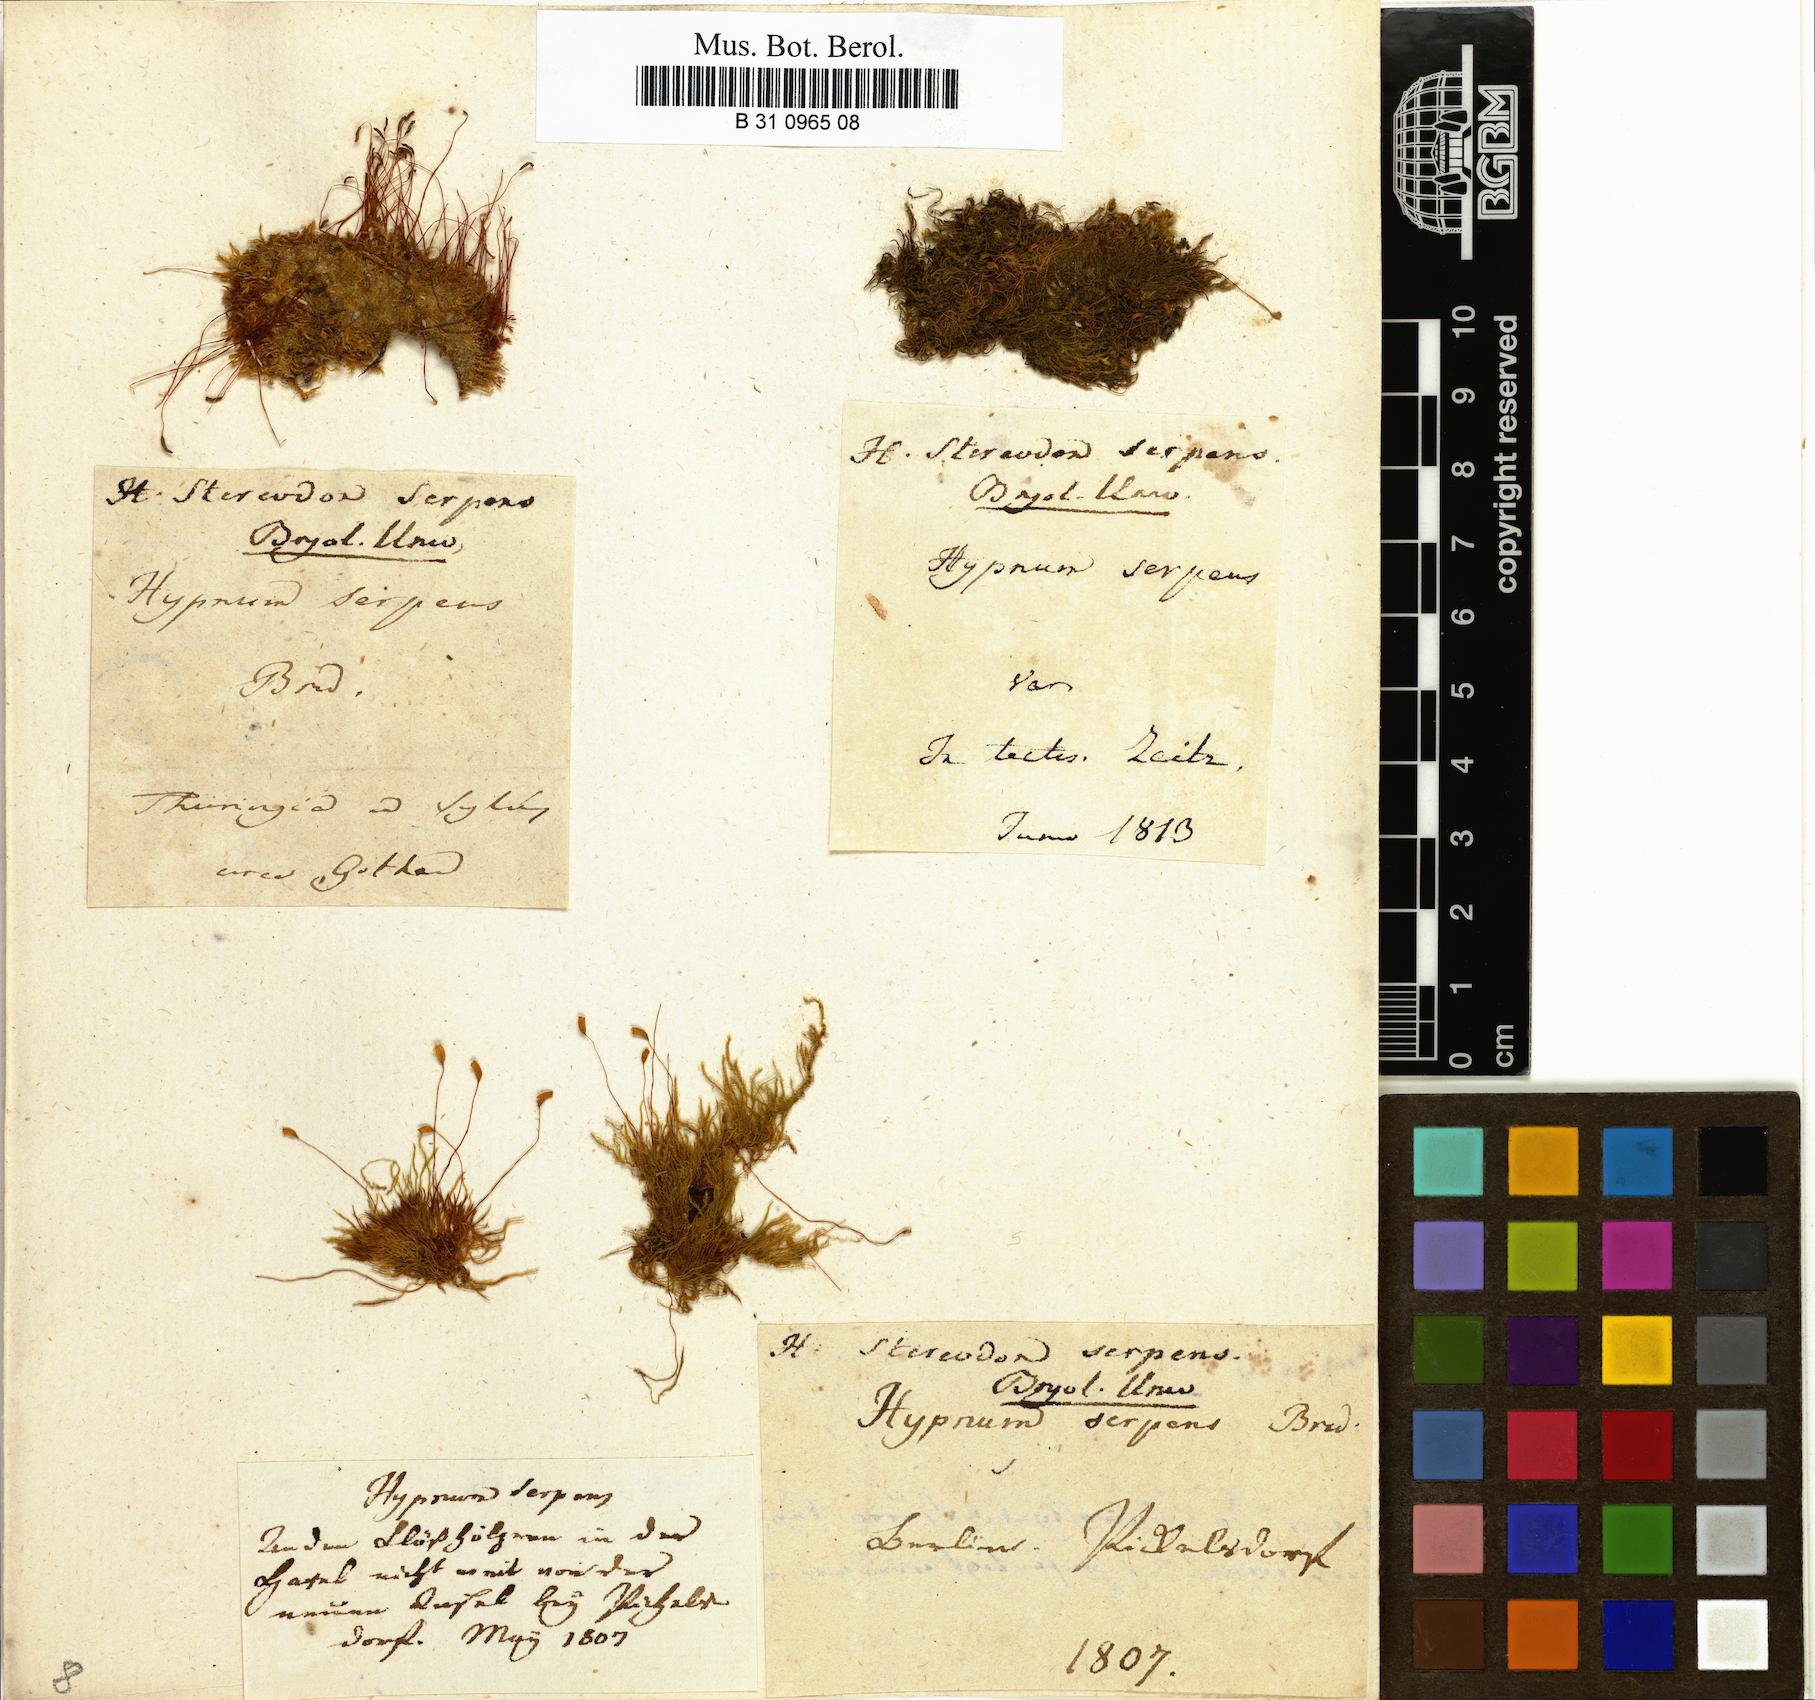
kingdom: Plantae
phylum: Bryophyta
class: Bryopsida
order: Hypnales
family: Amblystegiaceae
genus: Amblystegium
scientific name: Amblystegium serpens
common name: Jurkatzka's feather moss
